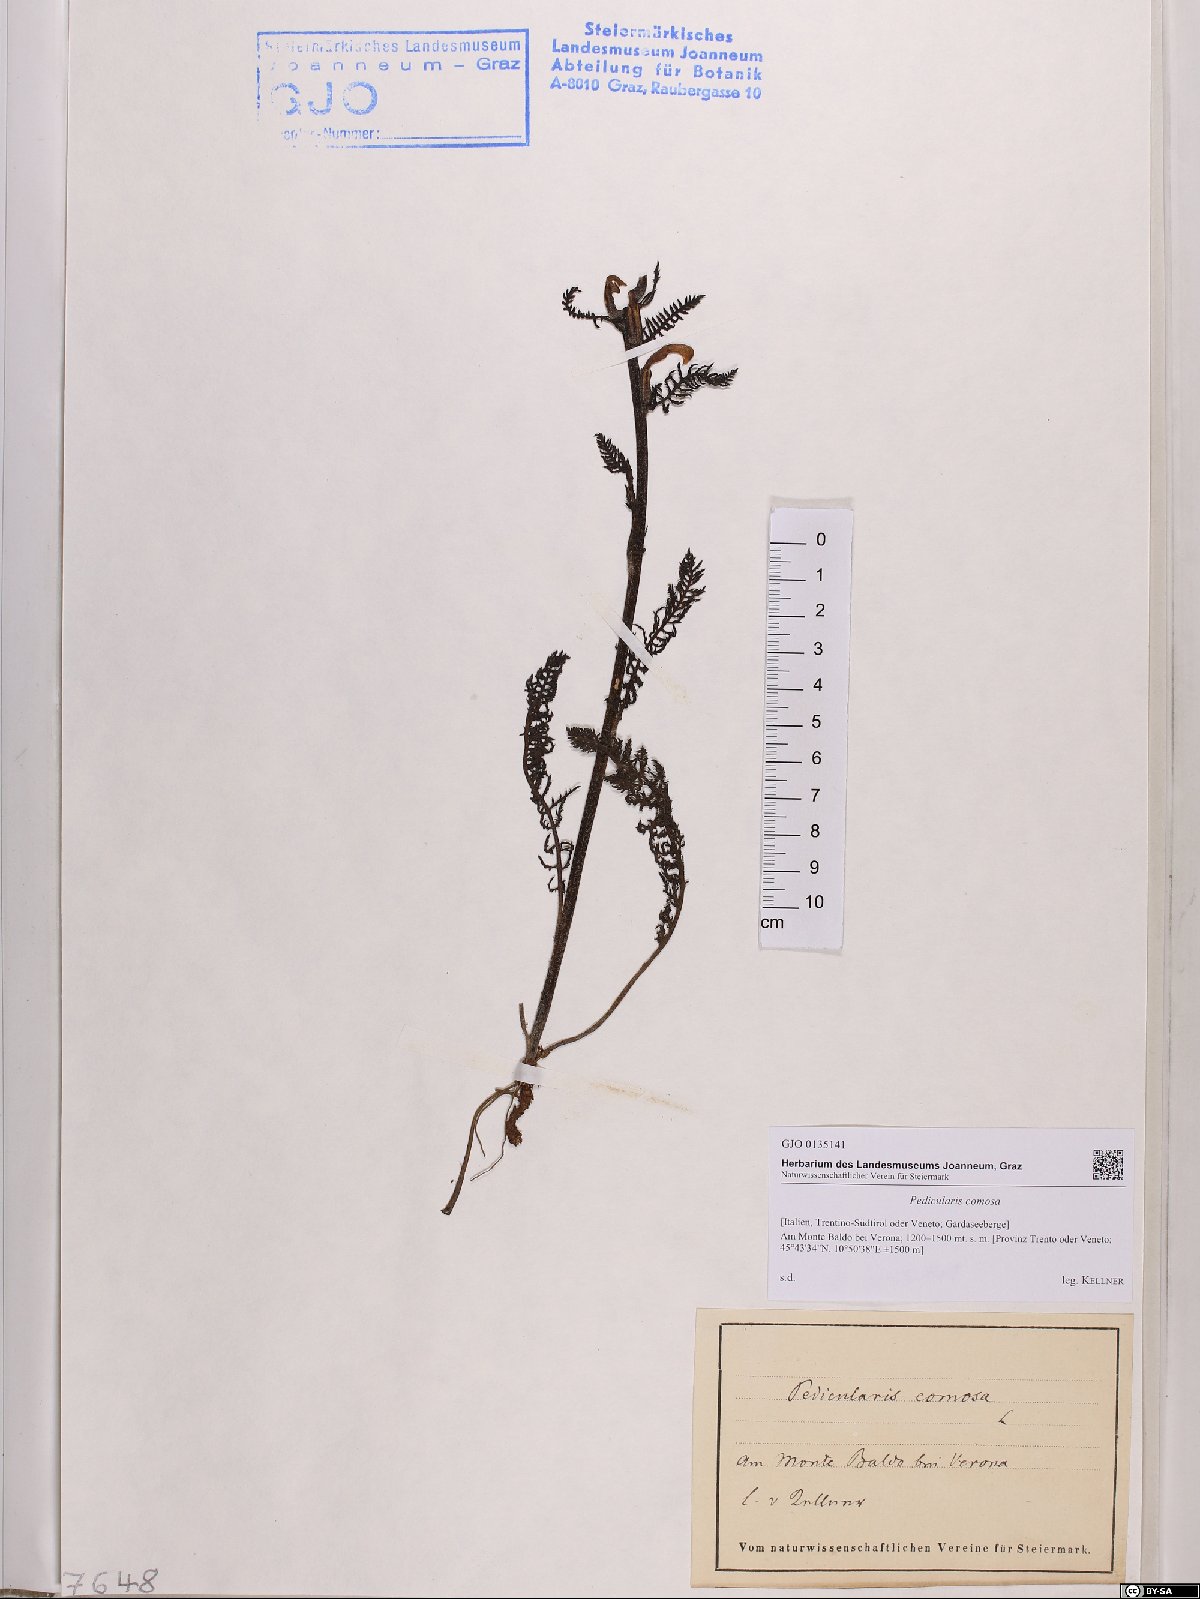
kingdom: Plantae
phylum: Tracheophyta
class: Magnoliopsida
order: Lamiales
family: Orobanchaceae
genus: Pedicularis
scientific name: Pedicularis comosa
